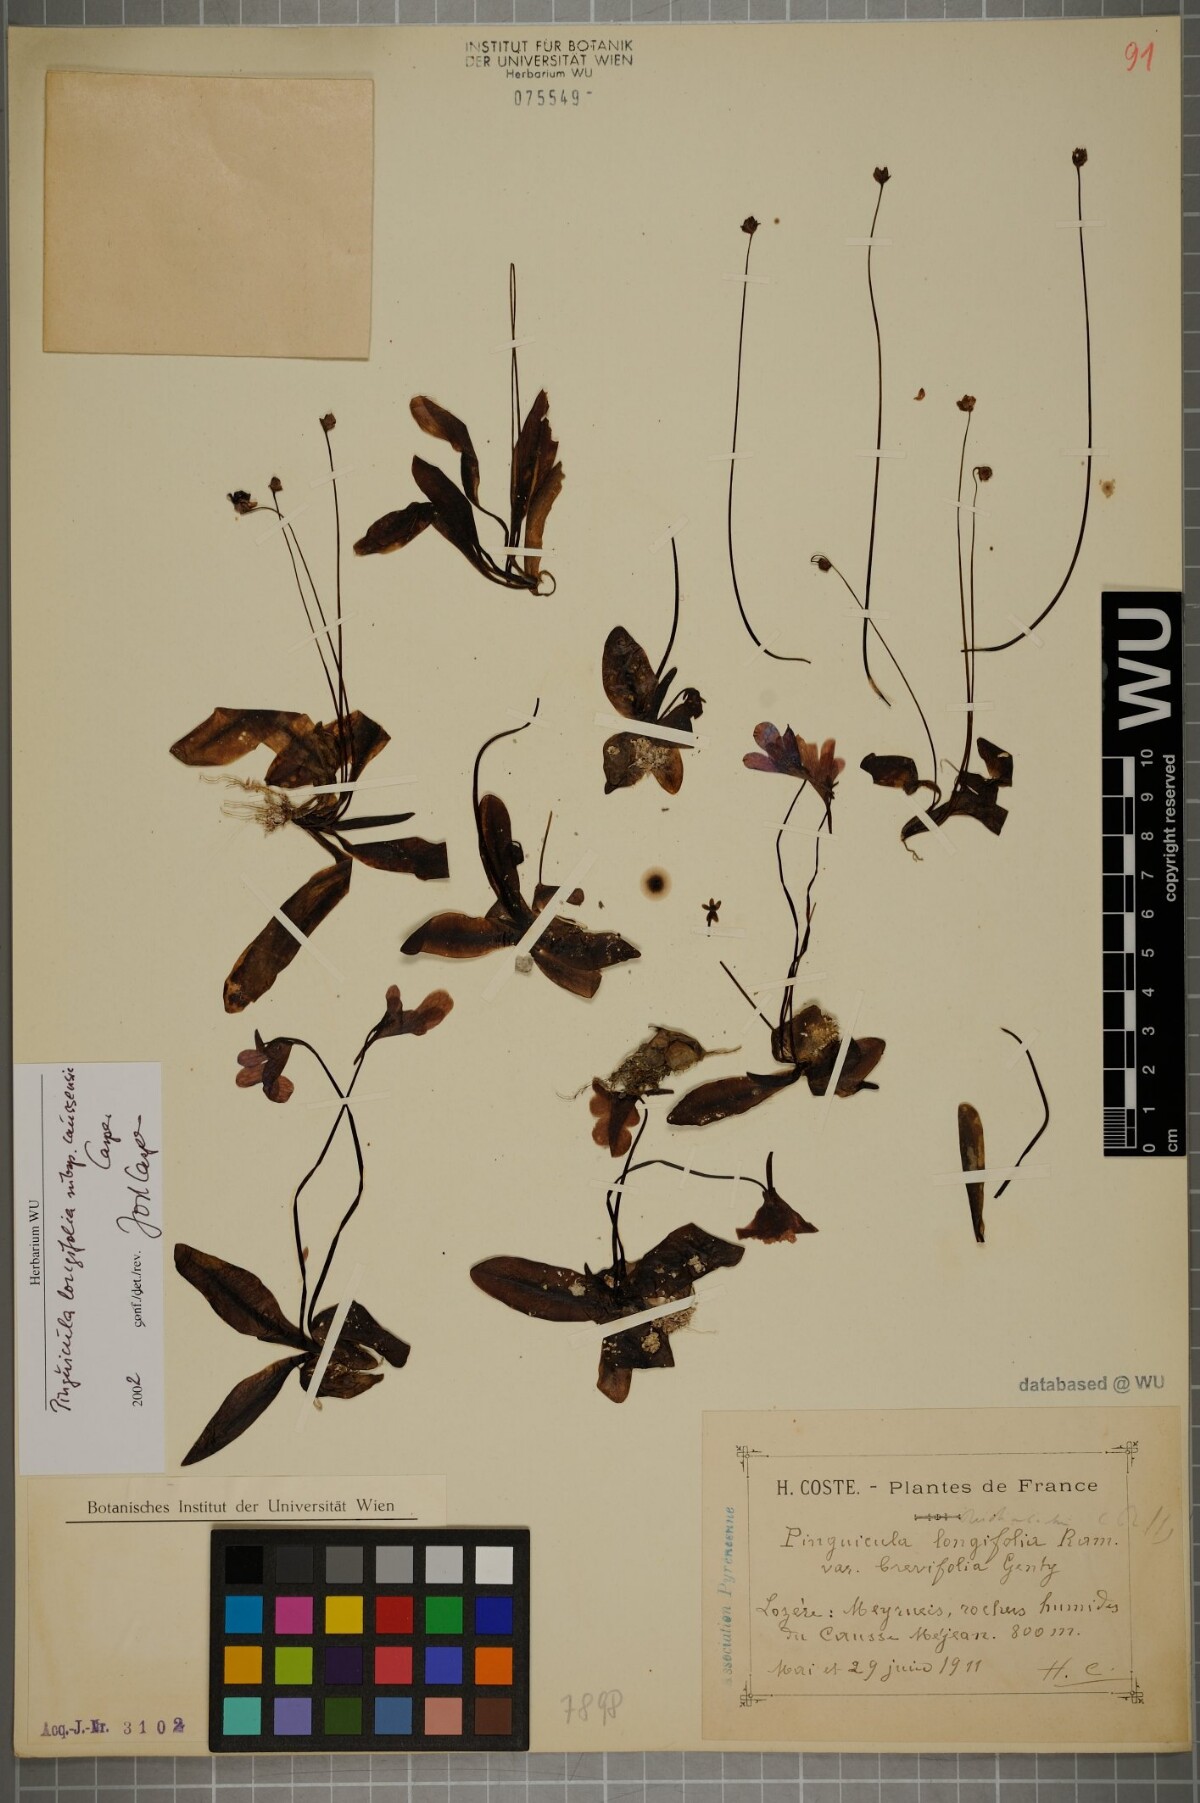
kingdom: Plantae
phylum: Tracheophyta
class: Magnoliopsida
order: Lamiales
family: Lentibulariaceae
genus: Pinguicula
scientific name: Pinguicula caussensis
